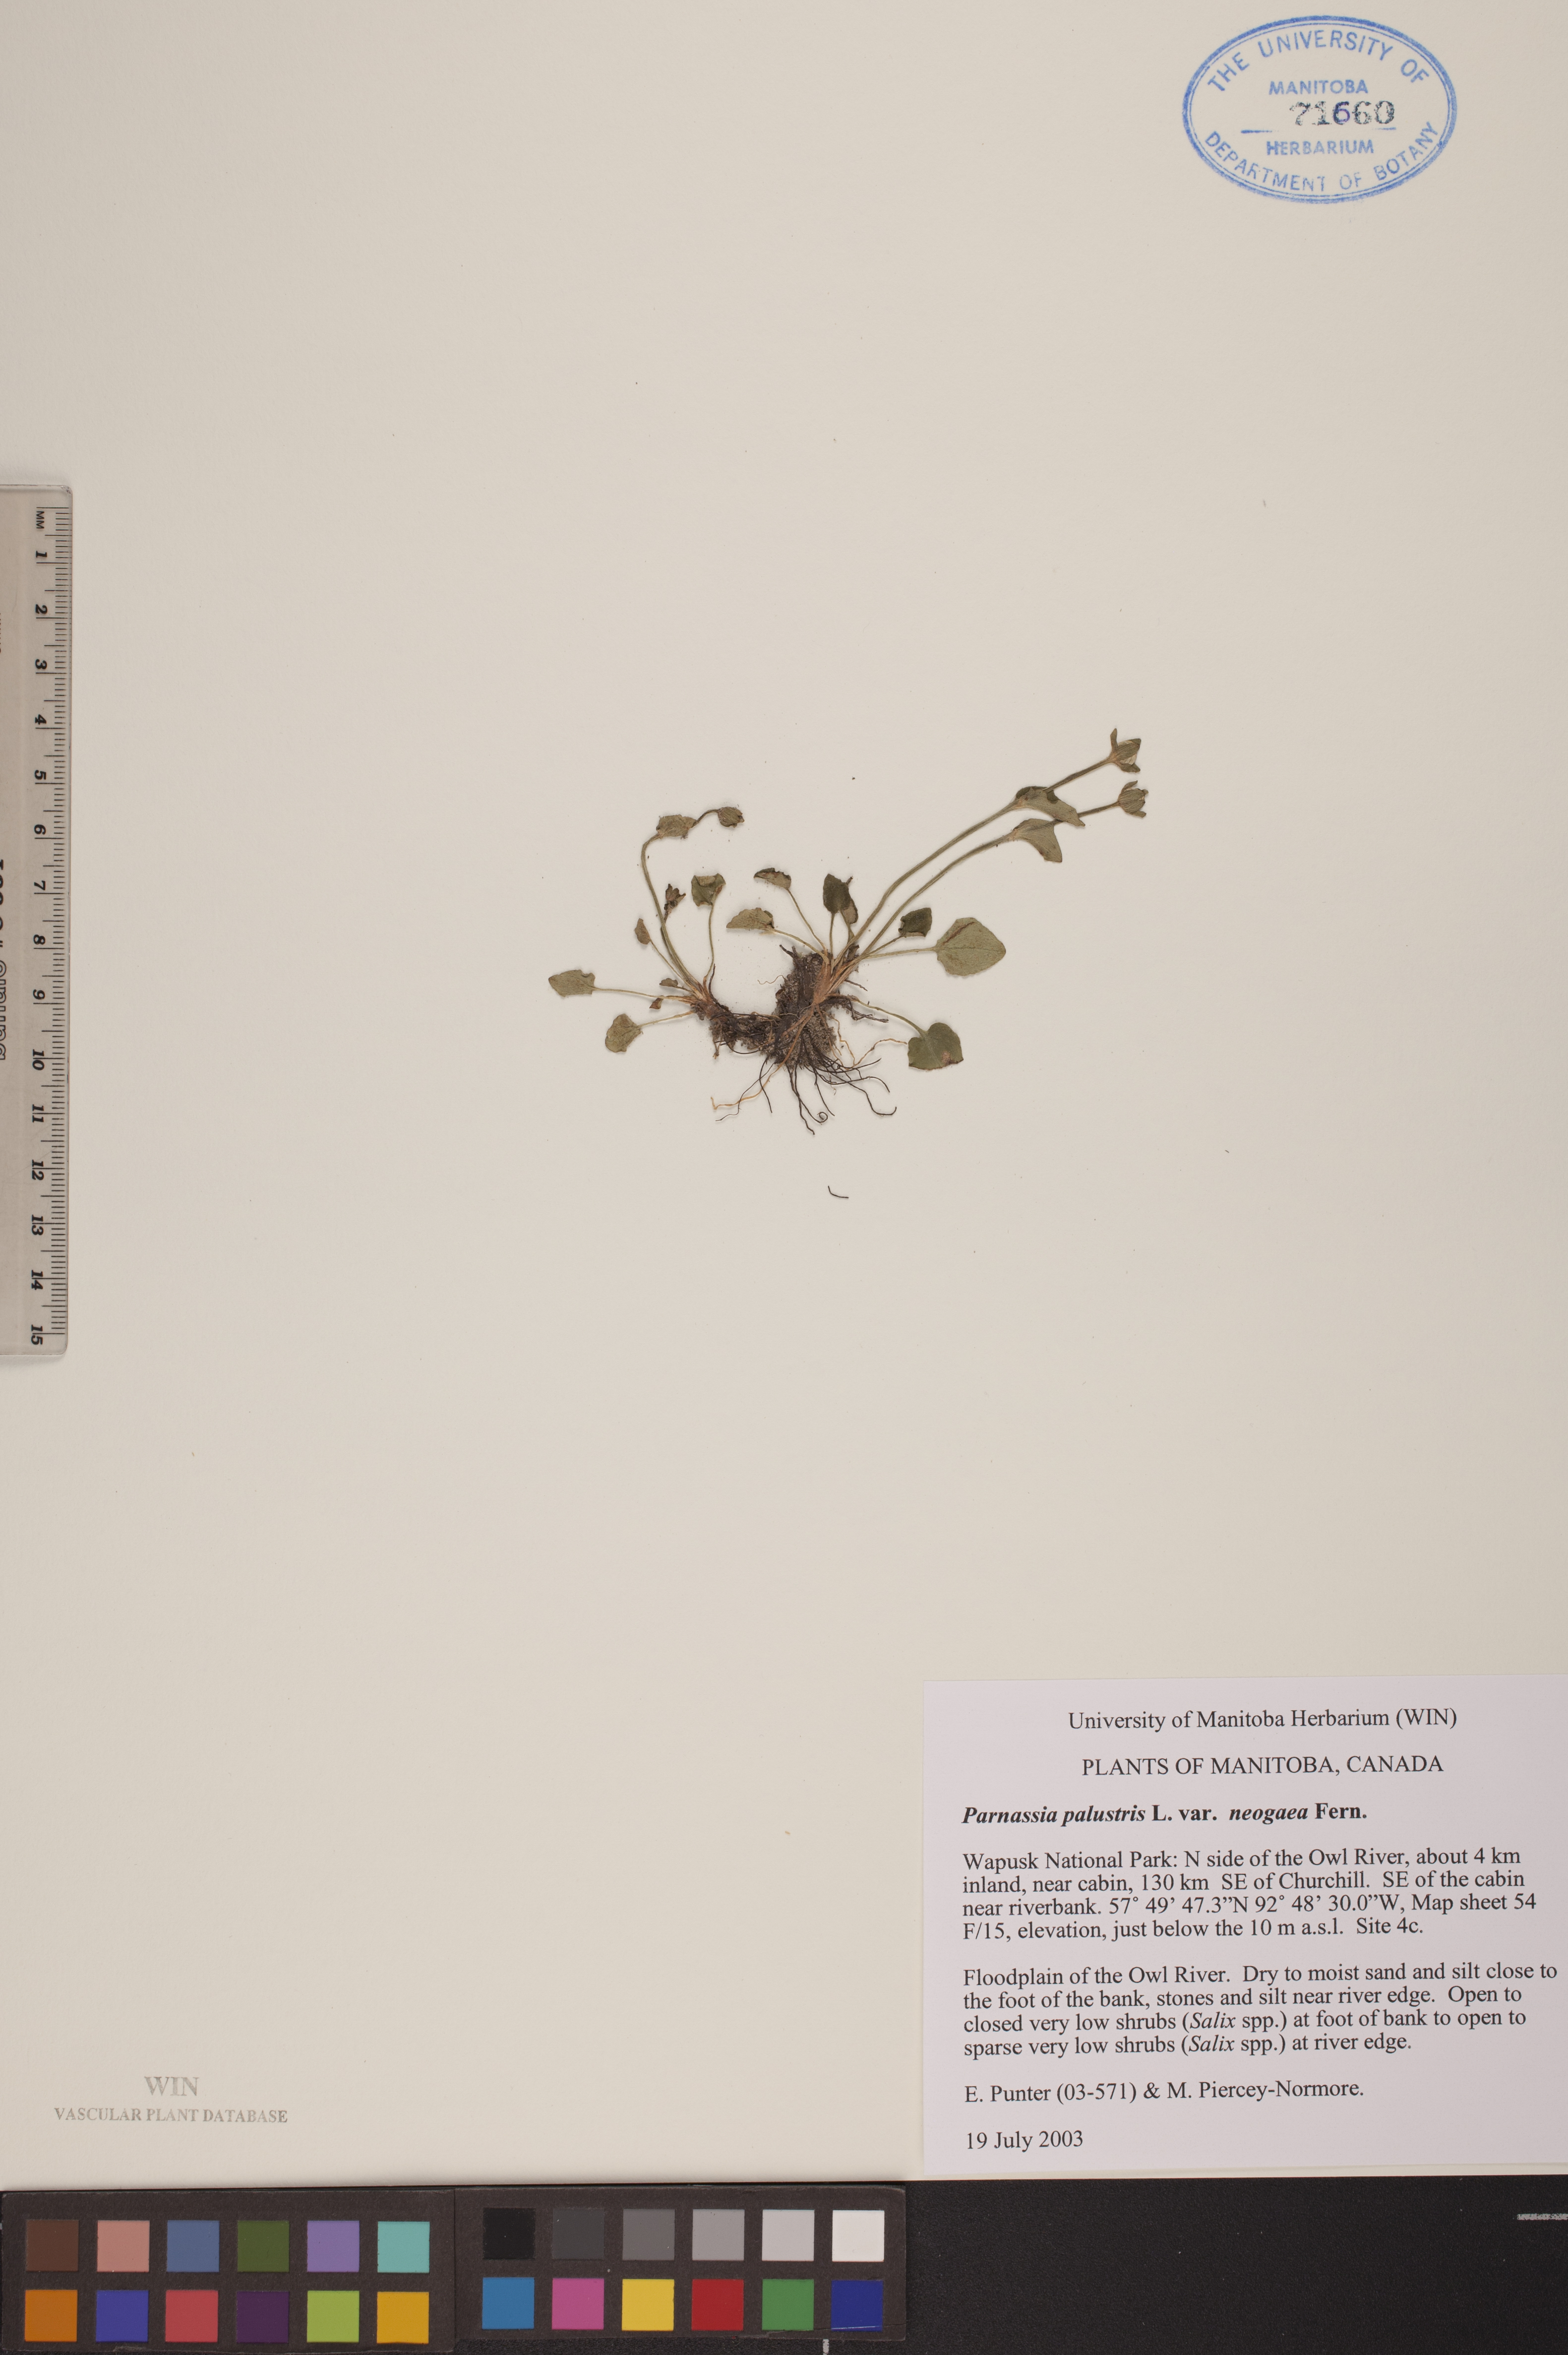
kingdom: Plantae
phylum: Tracheophyta
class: Magnoliopsida
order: Celastrales
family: Parnassiaceae
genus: Parnassia
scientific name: Parnassia palustris
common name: Grass-of-parnassus
